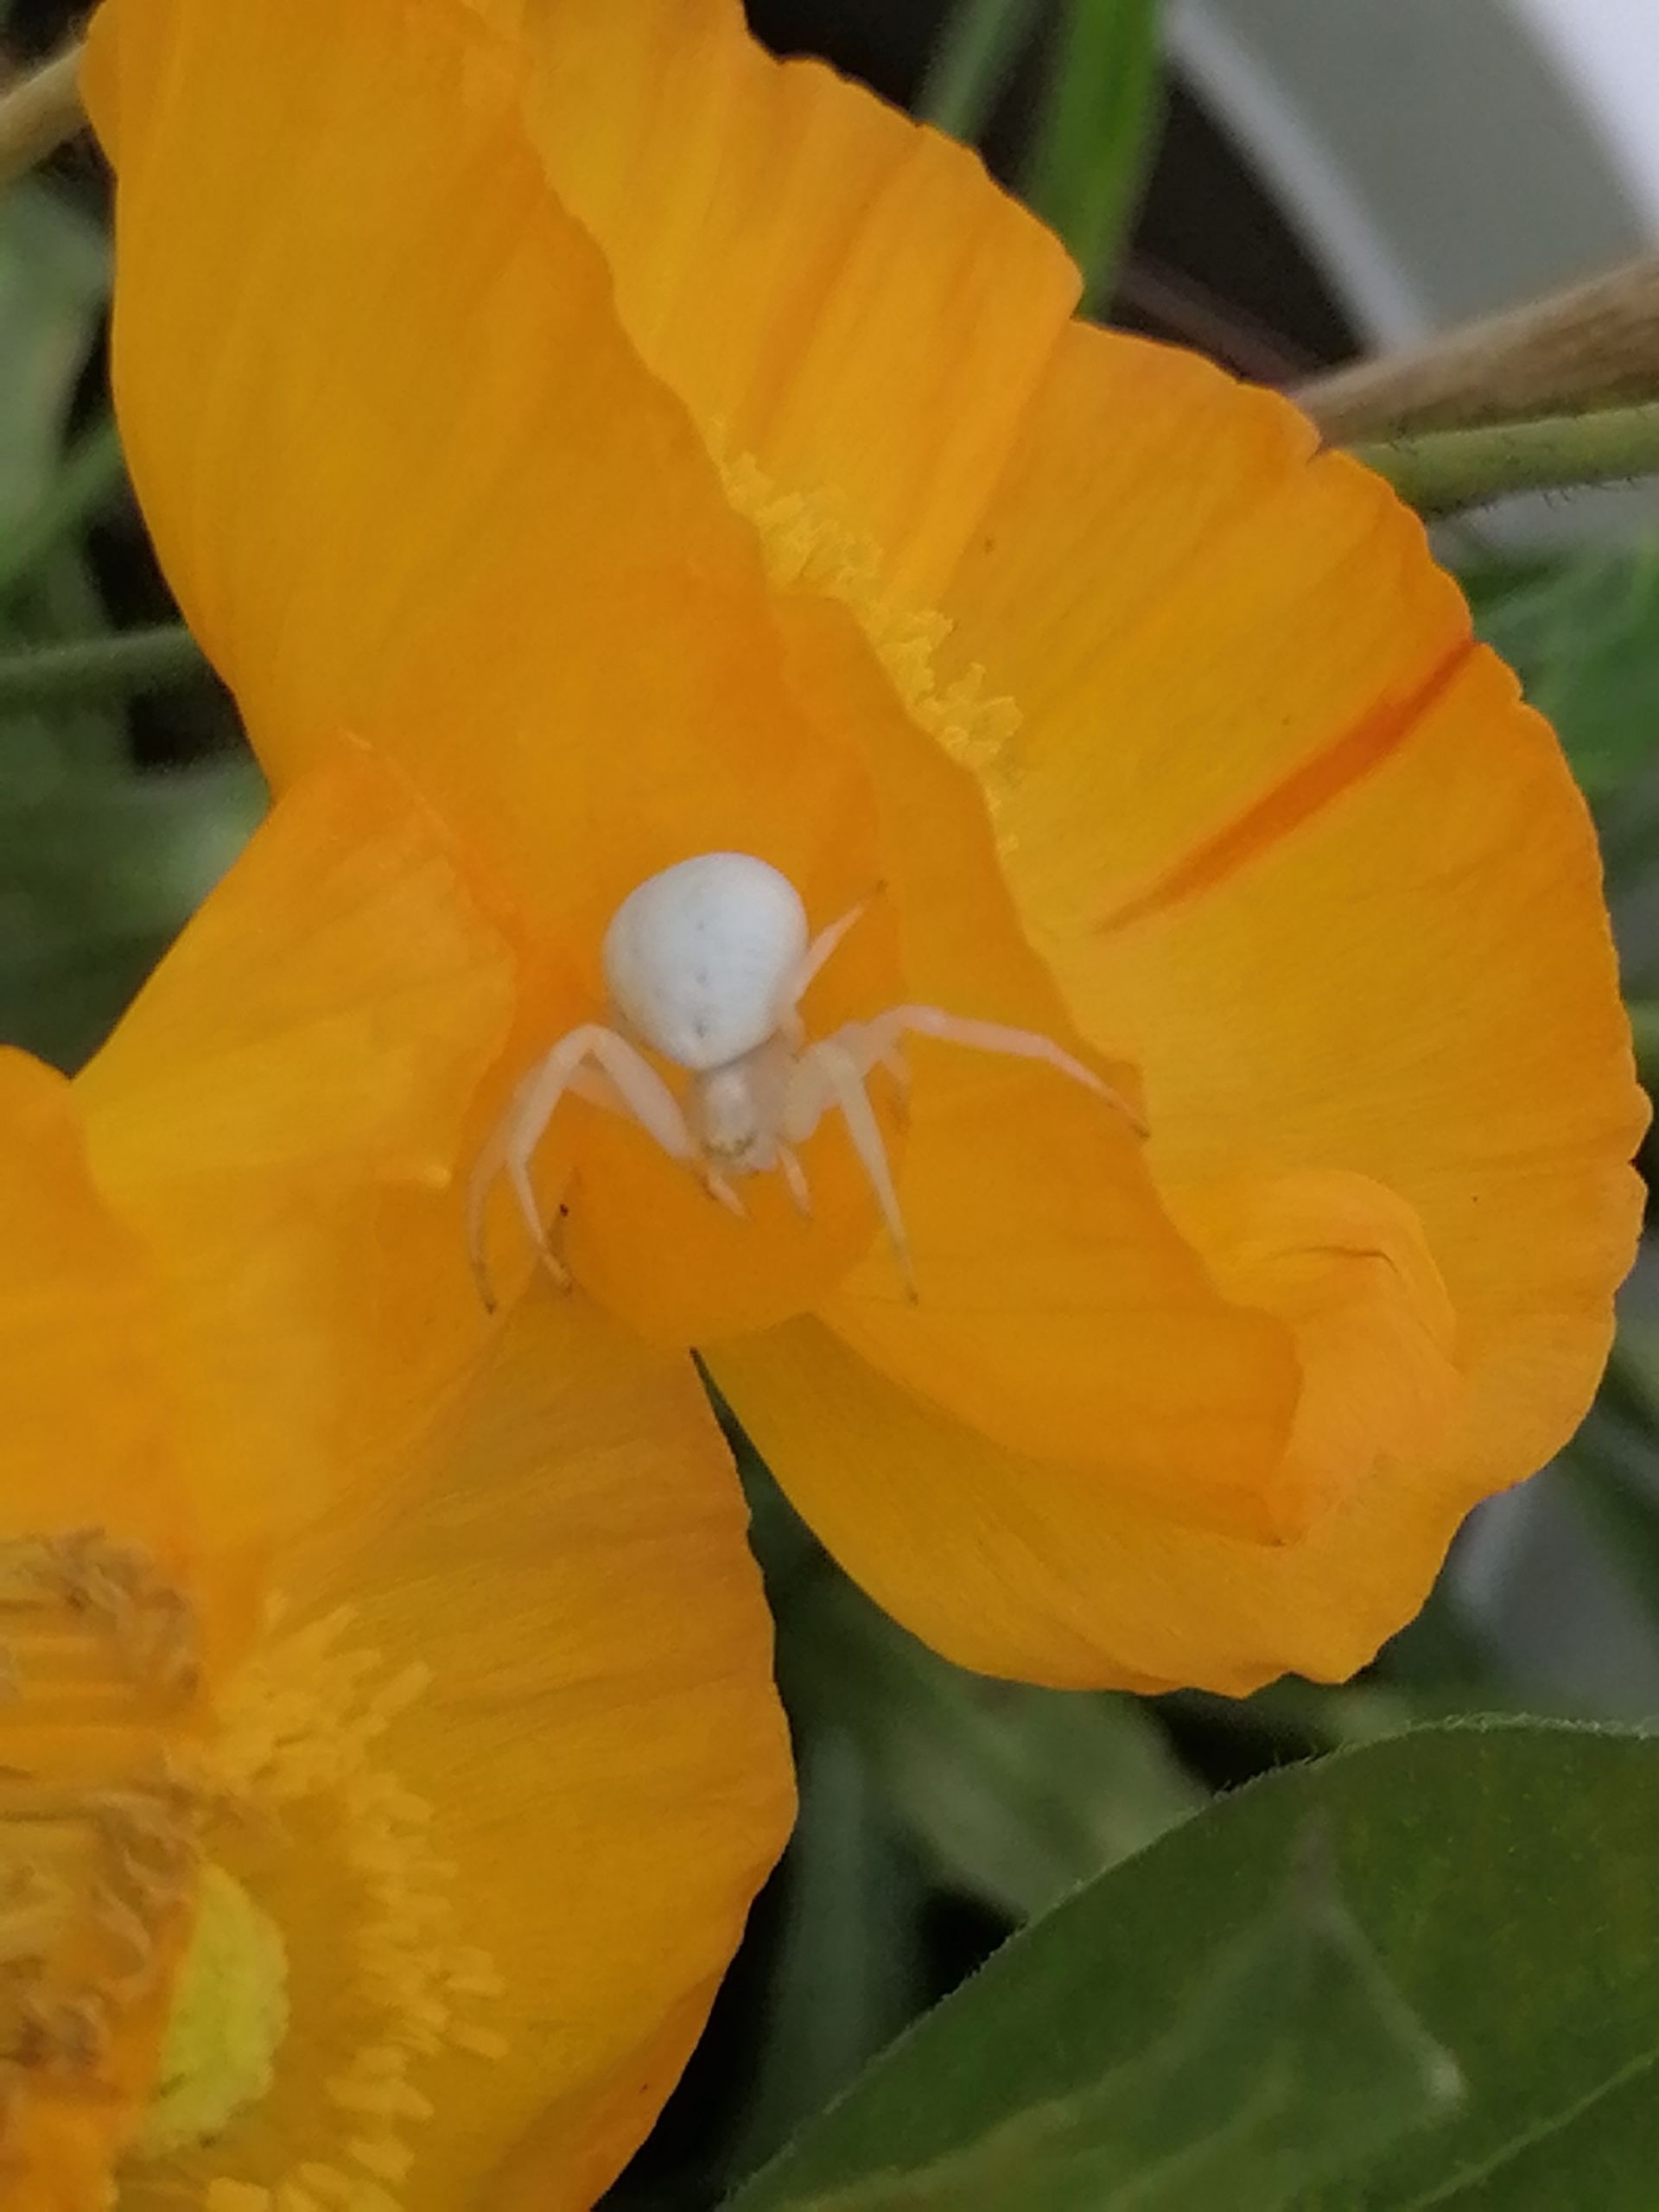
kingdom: Animalia
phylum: Arthropoda
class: Arachnida
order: Araneae
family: Thomisidae
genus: Misumena
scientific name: Misumena vatia
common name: Kamæleonedderkop
